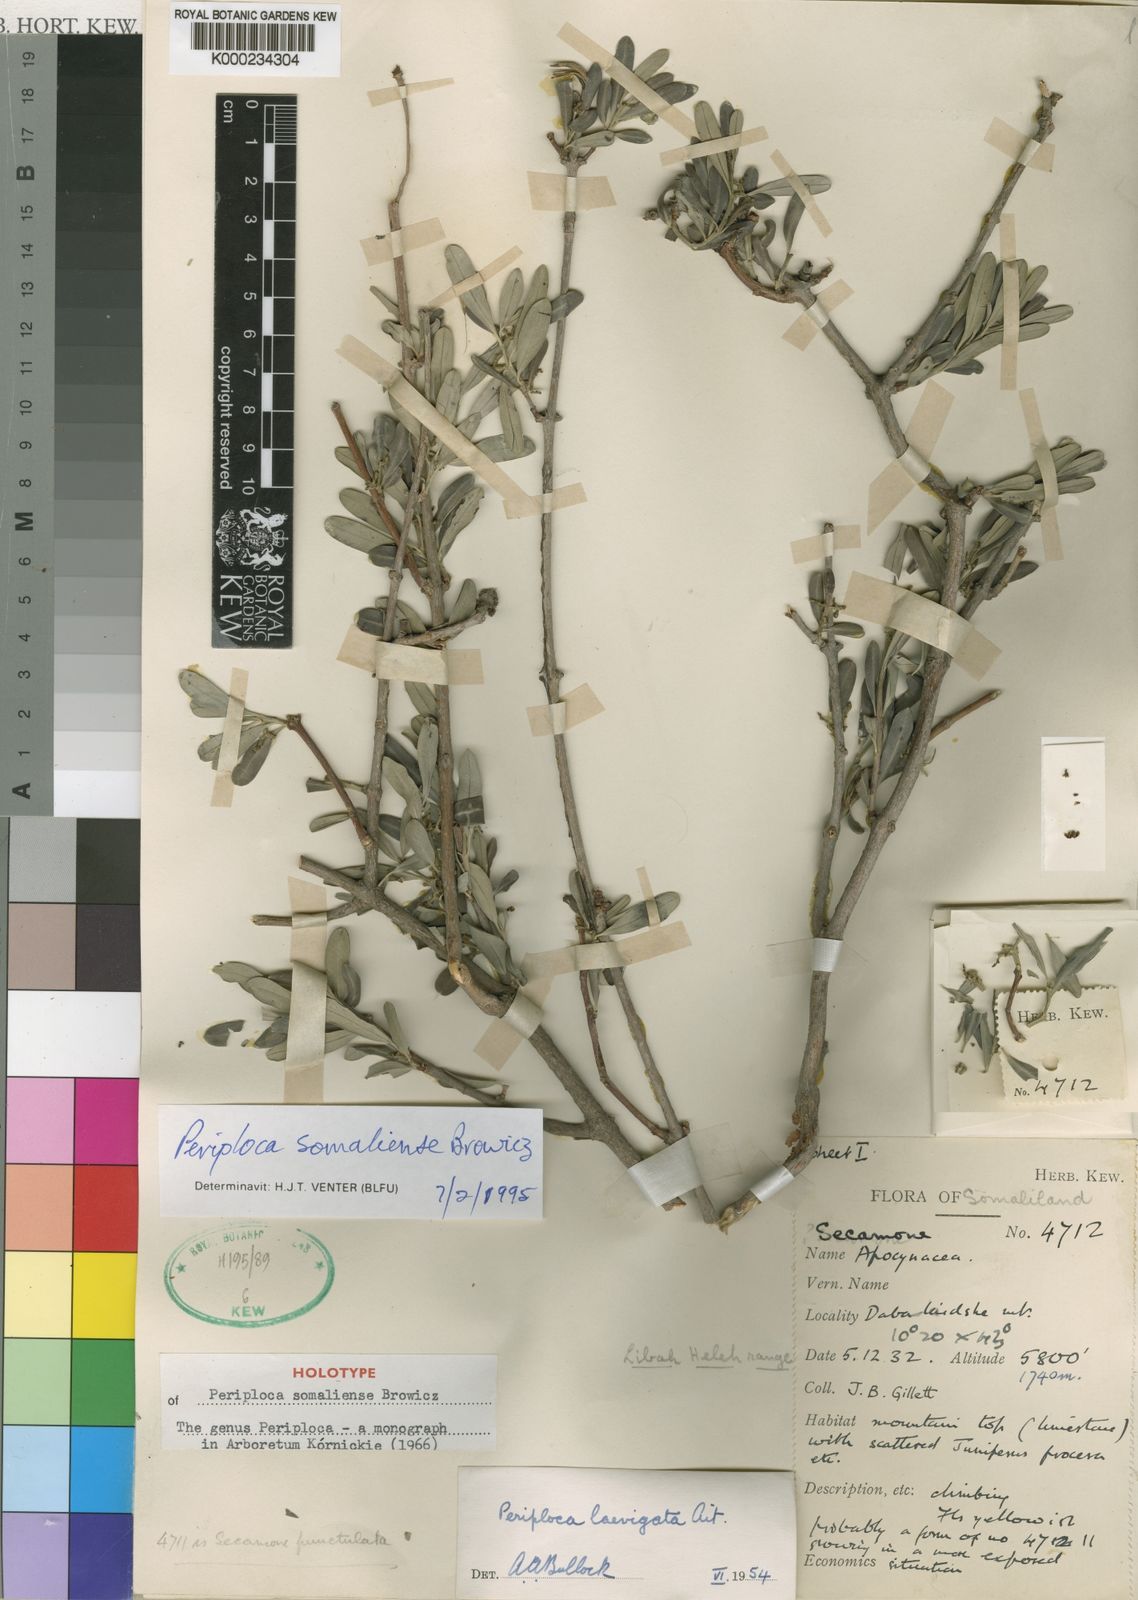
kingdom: Plantae
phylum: Tracheophyta
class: Magnoliopsida
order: Gentianales
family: Apocynaceae
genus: Periploca
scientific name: Periploca somaliensis
